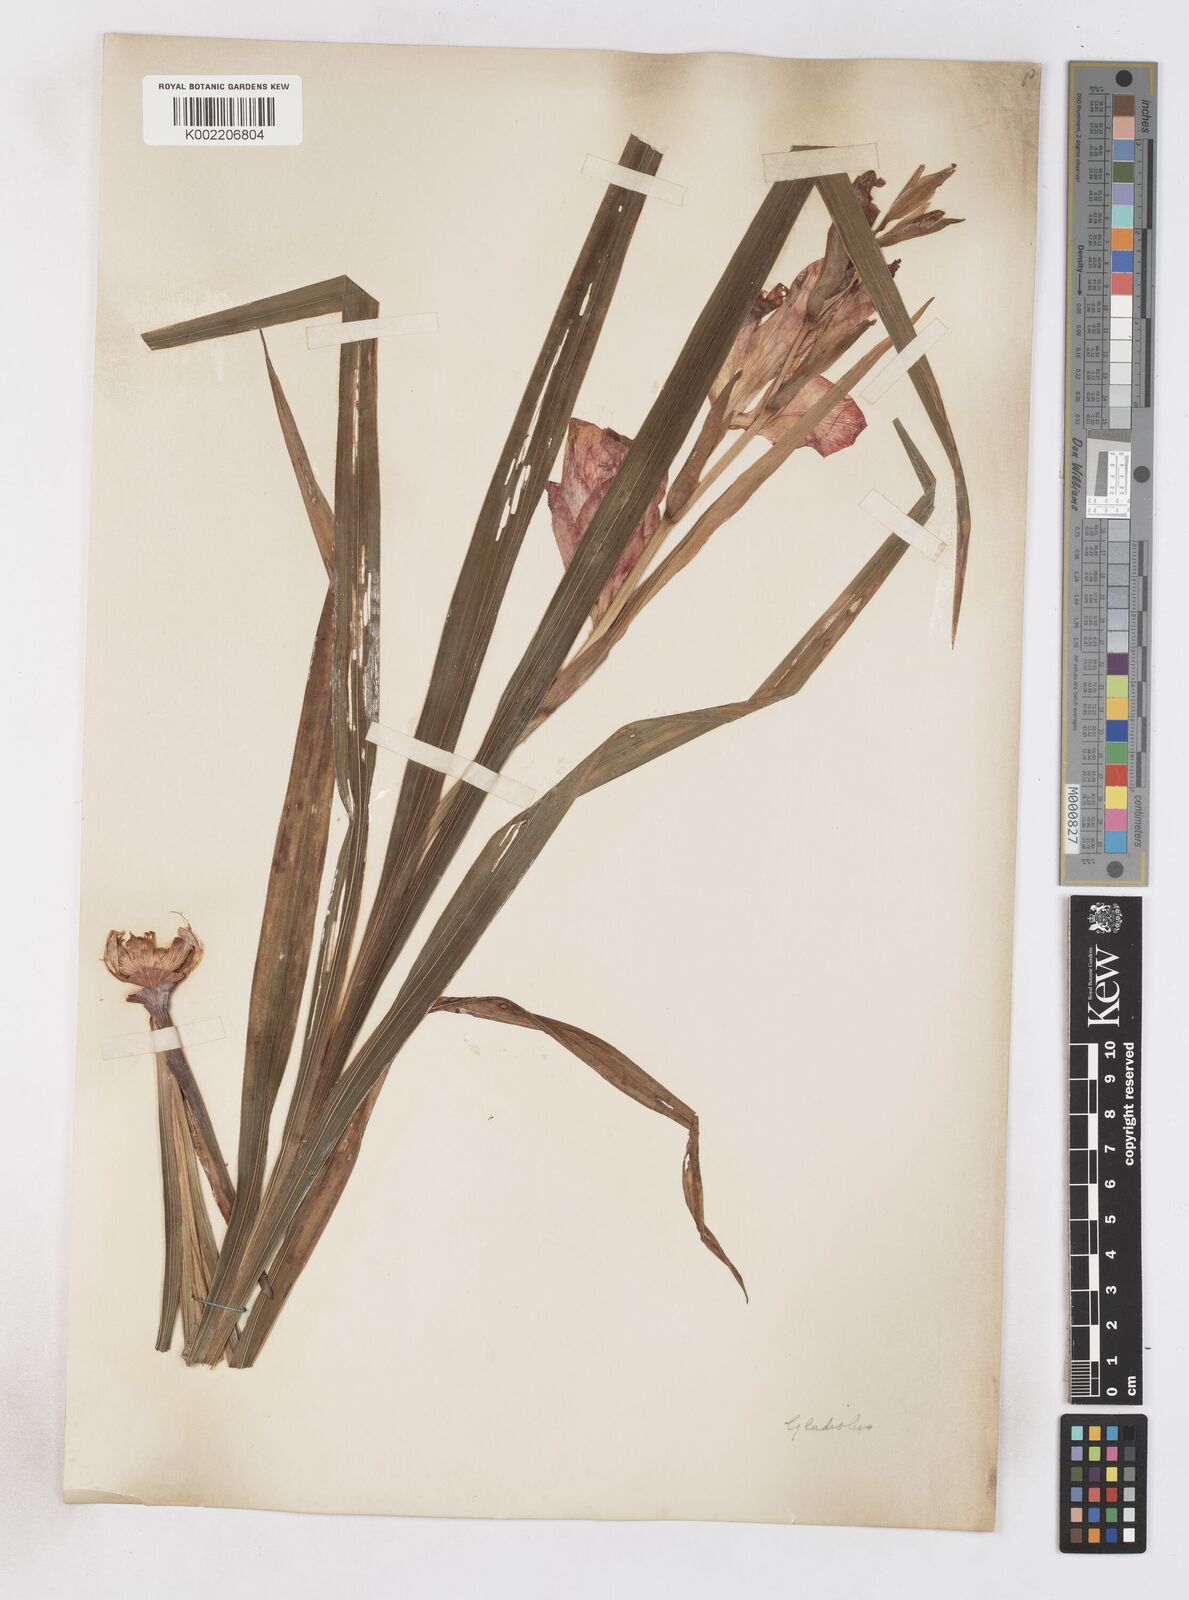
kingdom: Plantae
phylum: Tracheophyta
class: Liliopsida
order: Asparagales
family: Iridaceae
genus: Gladiolus
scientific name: Gladiolus
